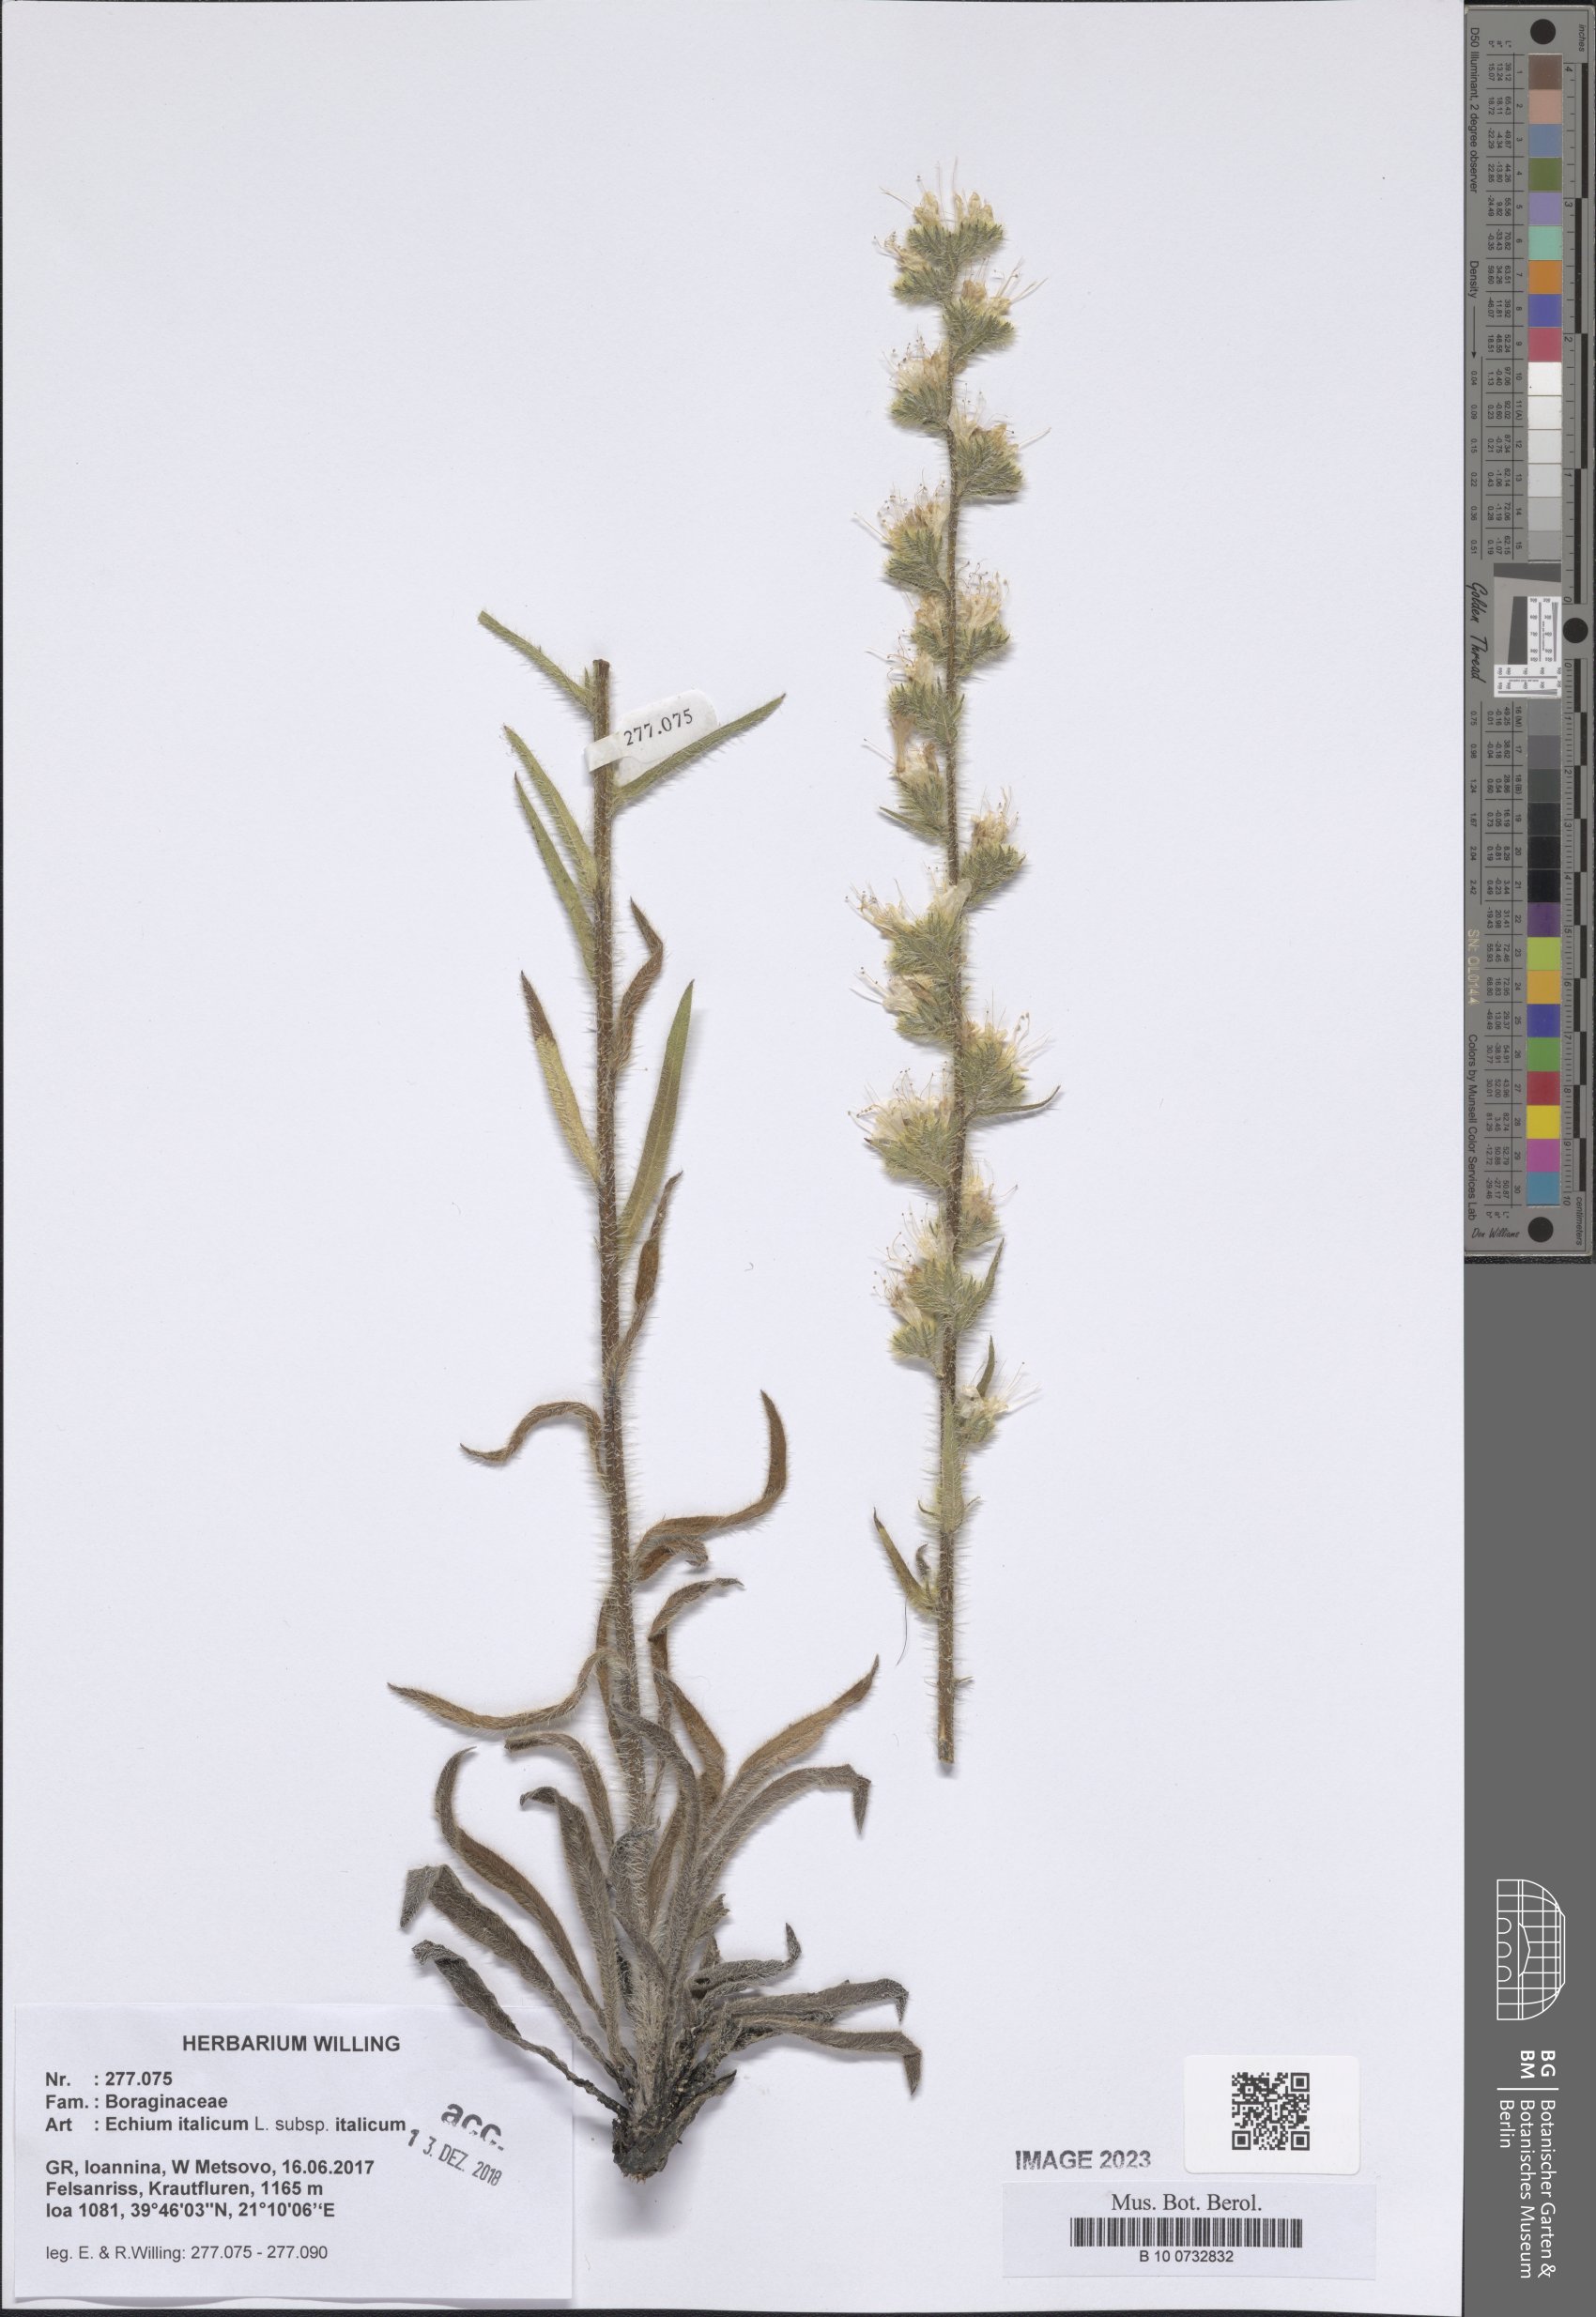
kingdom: Plantae
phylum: Tracheophyta
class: Magnoliopsida
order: Boraginales
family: Boraginaceae
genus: Echium
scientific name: Echium italicum
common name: Italian viper's bugloss
